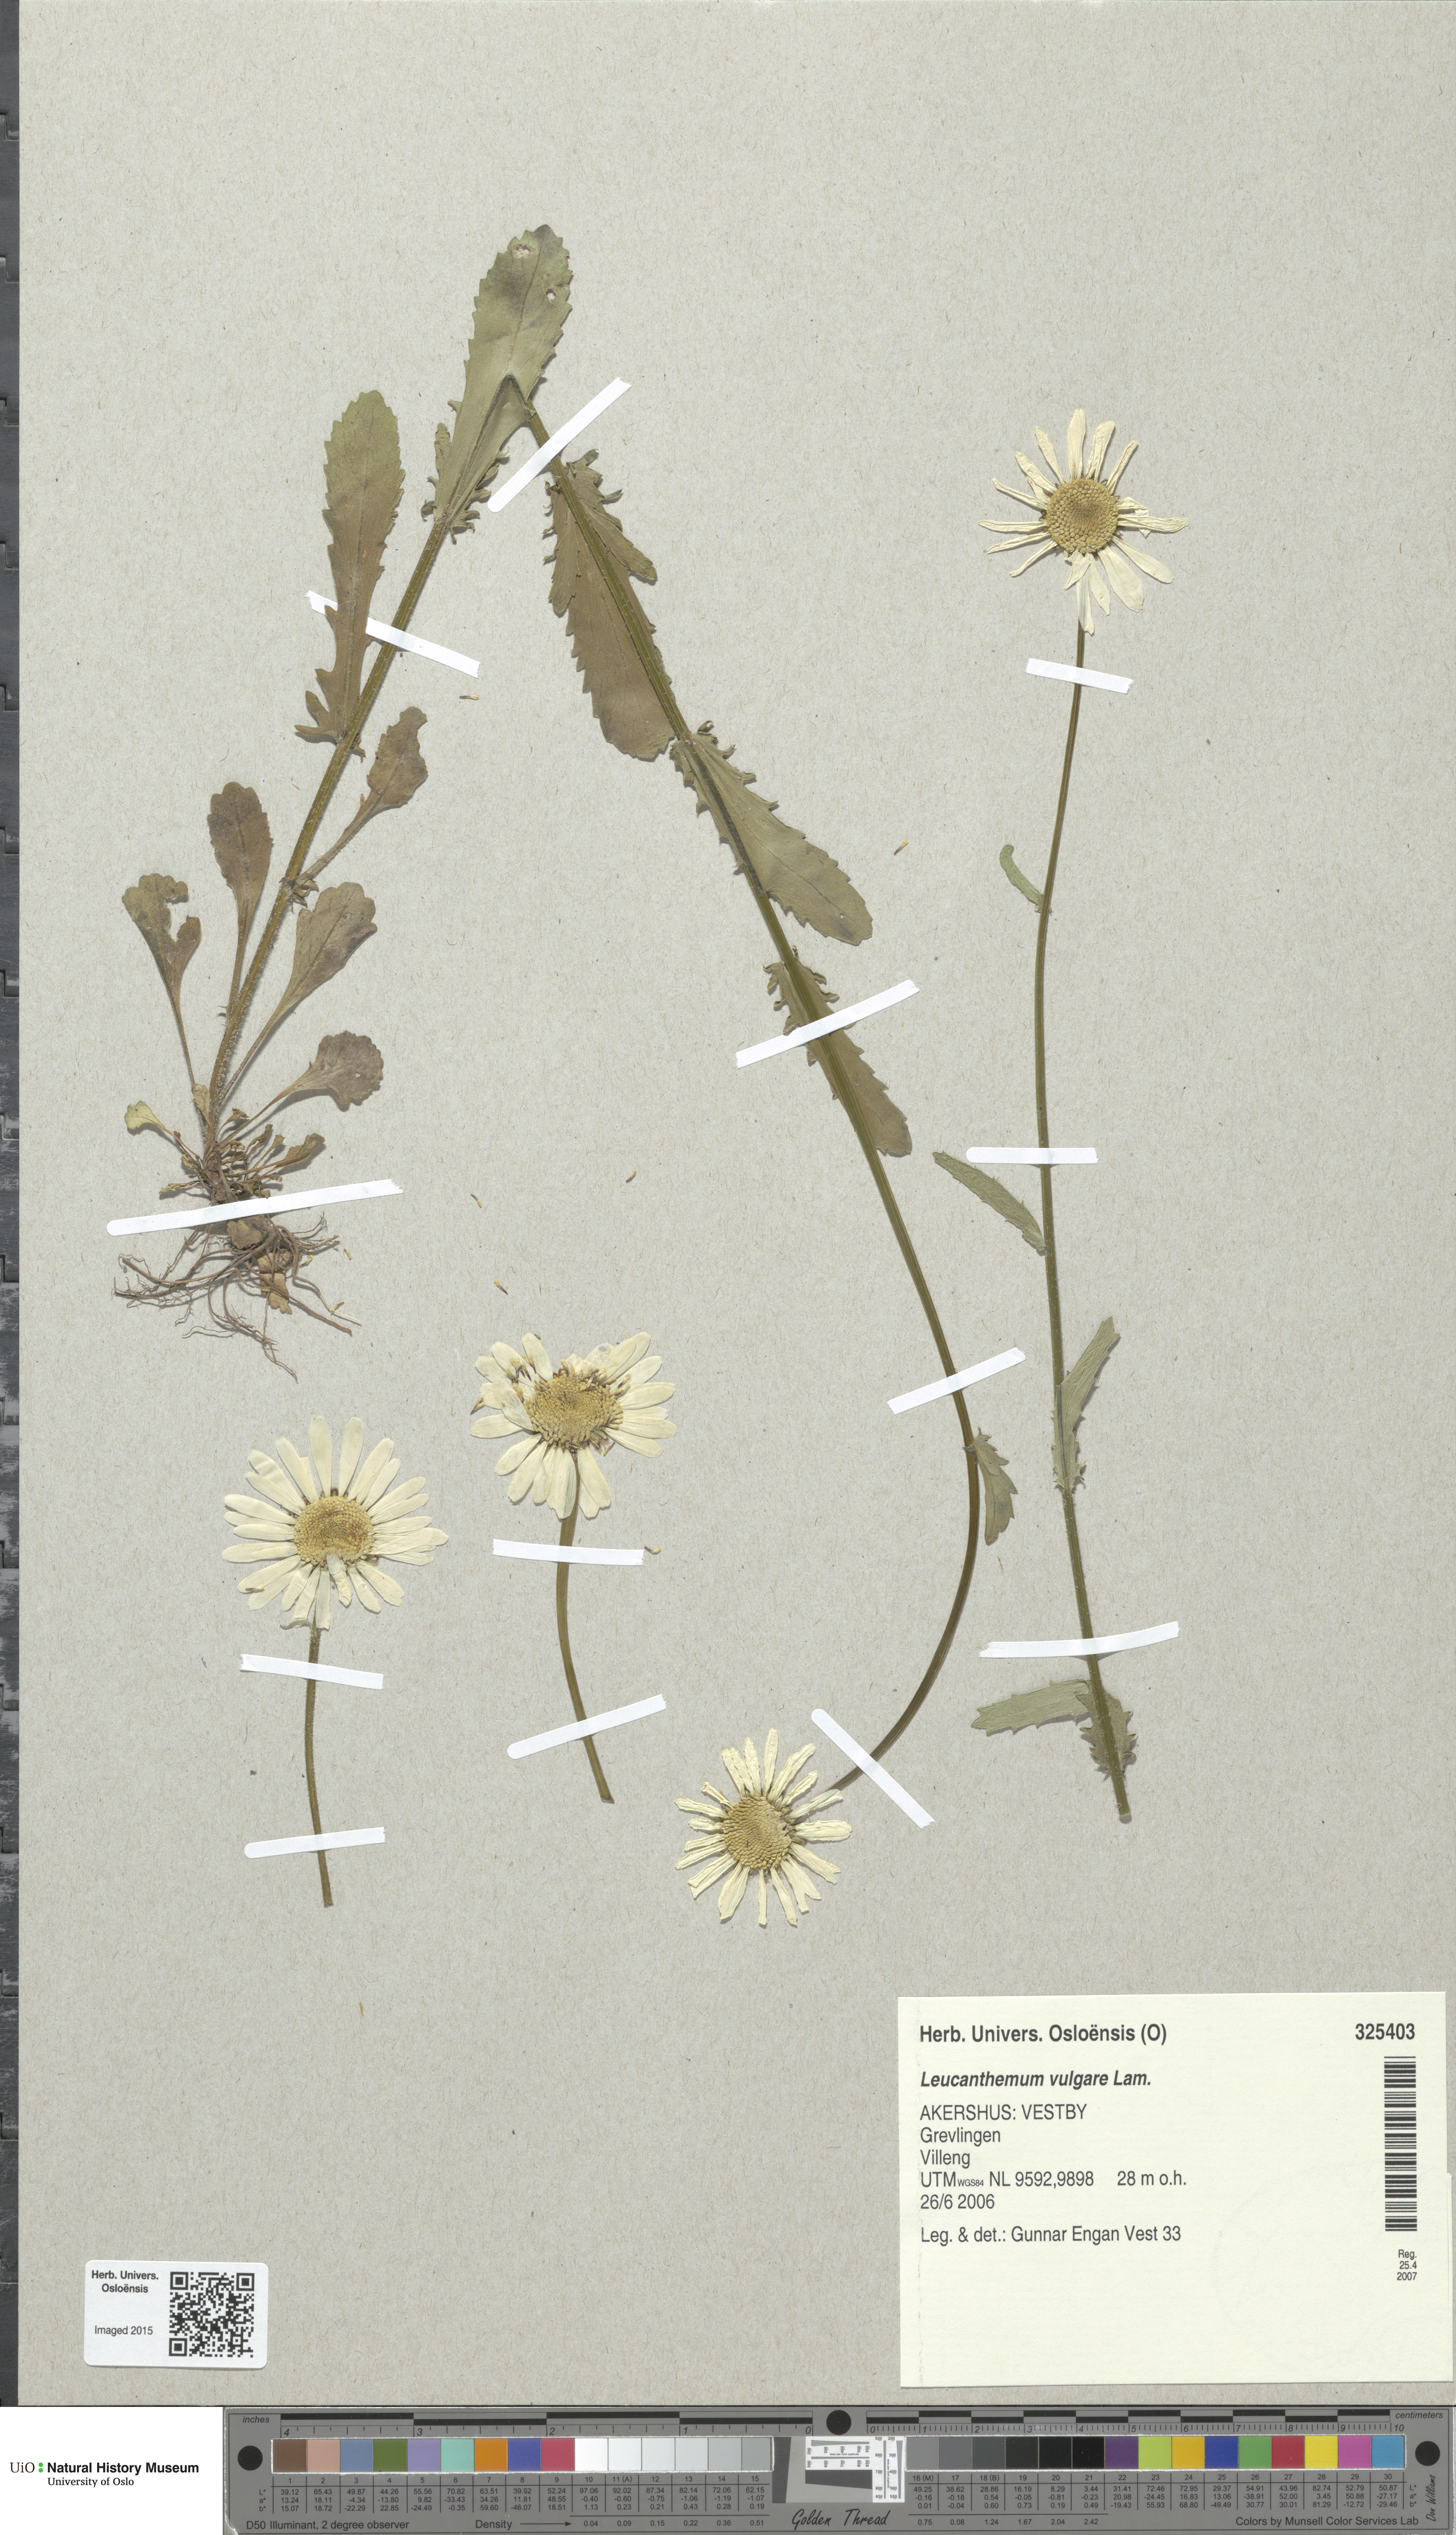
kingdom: Plantae
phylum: Tracheophyta
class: Magnoliopsida
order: Asterales
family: Asteraceae
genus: Leucanthemum
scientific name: Leucanthemum vulgare
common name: Oxeye daisy
